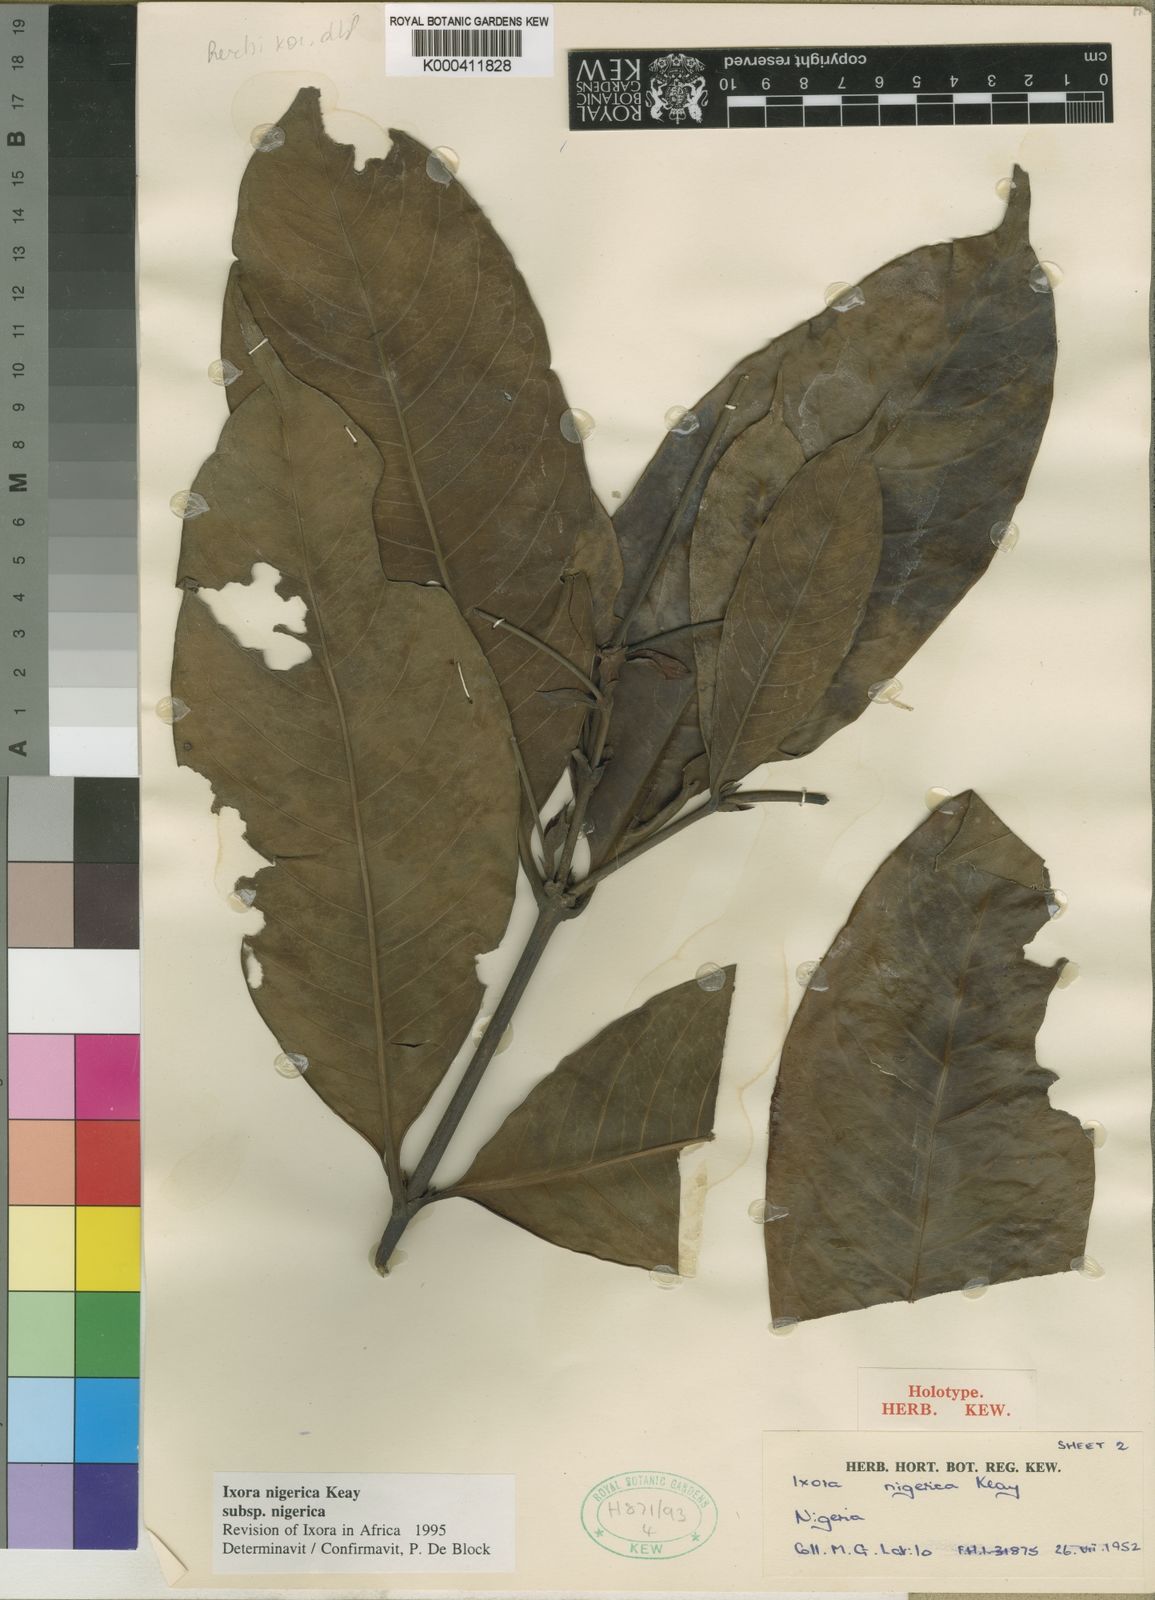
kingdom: Plantae
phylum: Tracheophyta
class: Magnoliopsida
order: Gentianales
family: Rubiaceae
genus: Ixora
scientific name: Ixora nigerica
